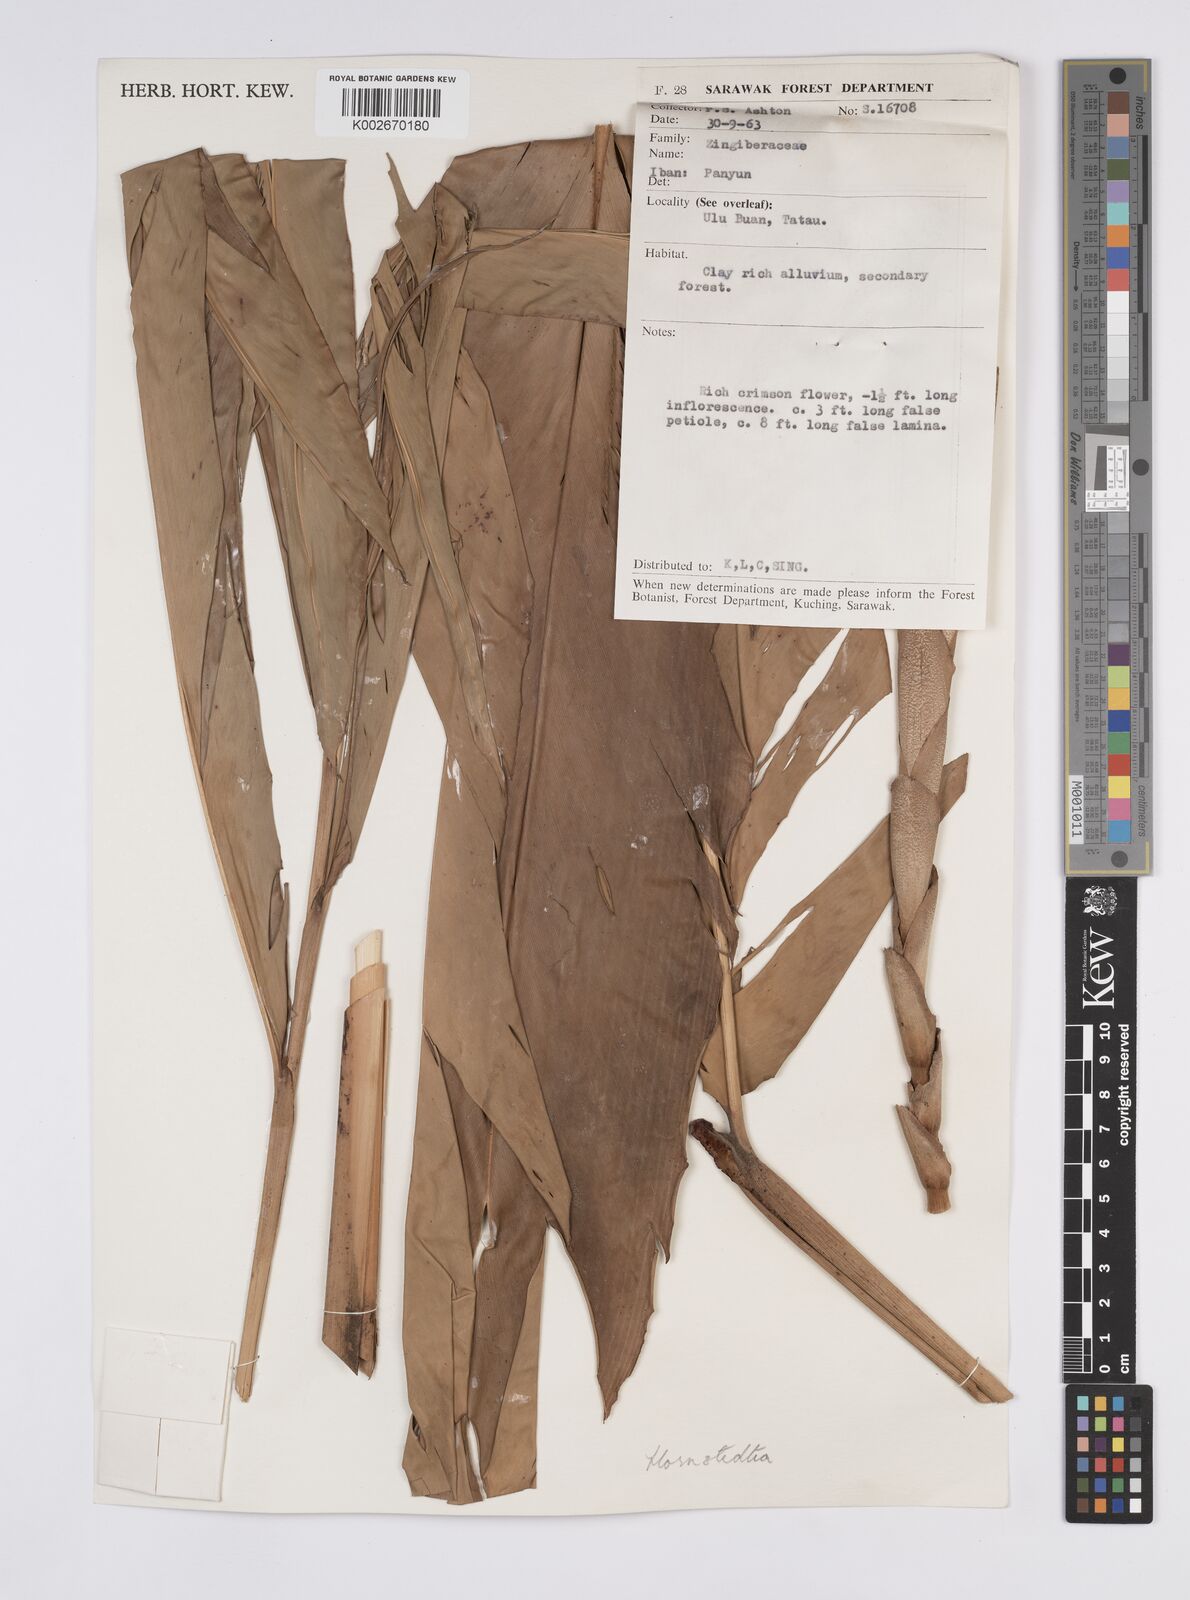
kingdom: Plantae
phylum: Tracheophyta
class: Liliopsida
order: Zingiberales
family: Zingiberaceae
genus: Hornstedtia
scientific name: Hornstedtia havilandii
